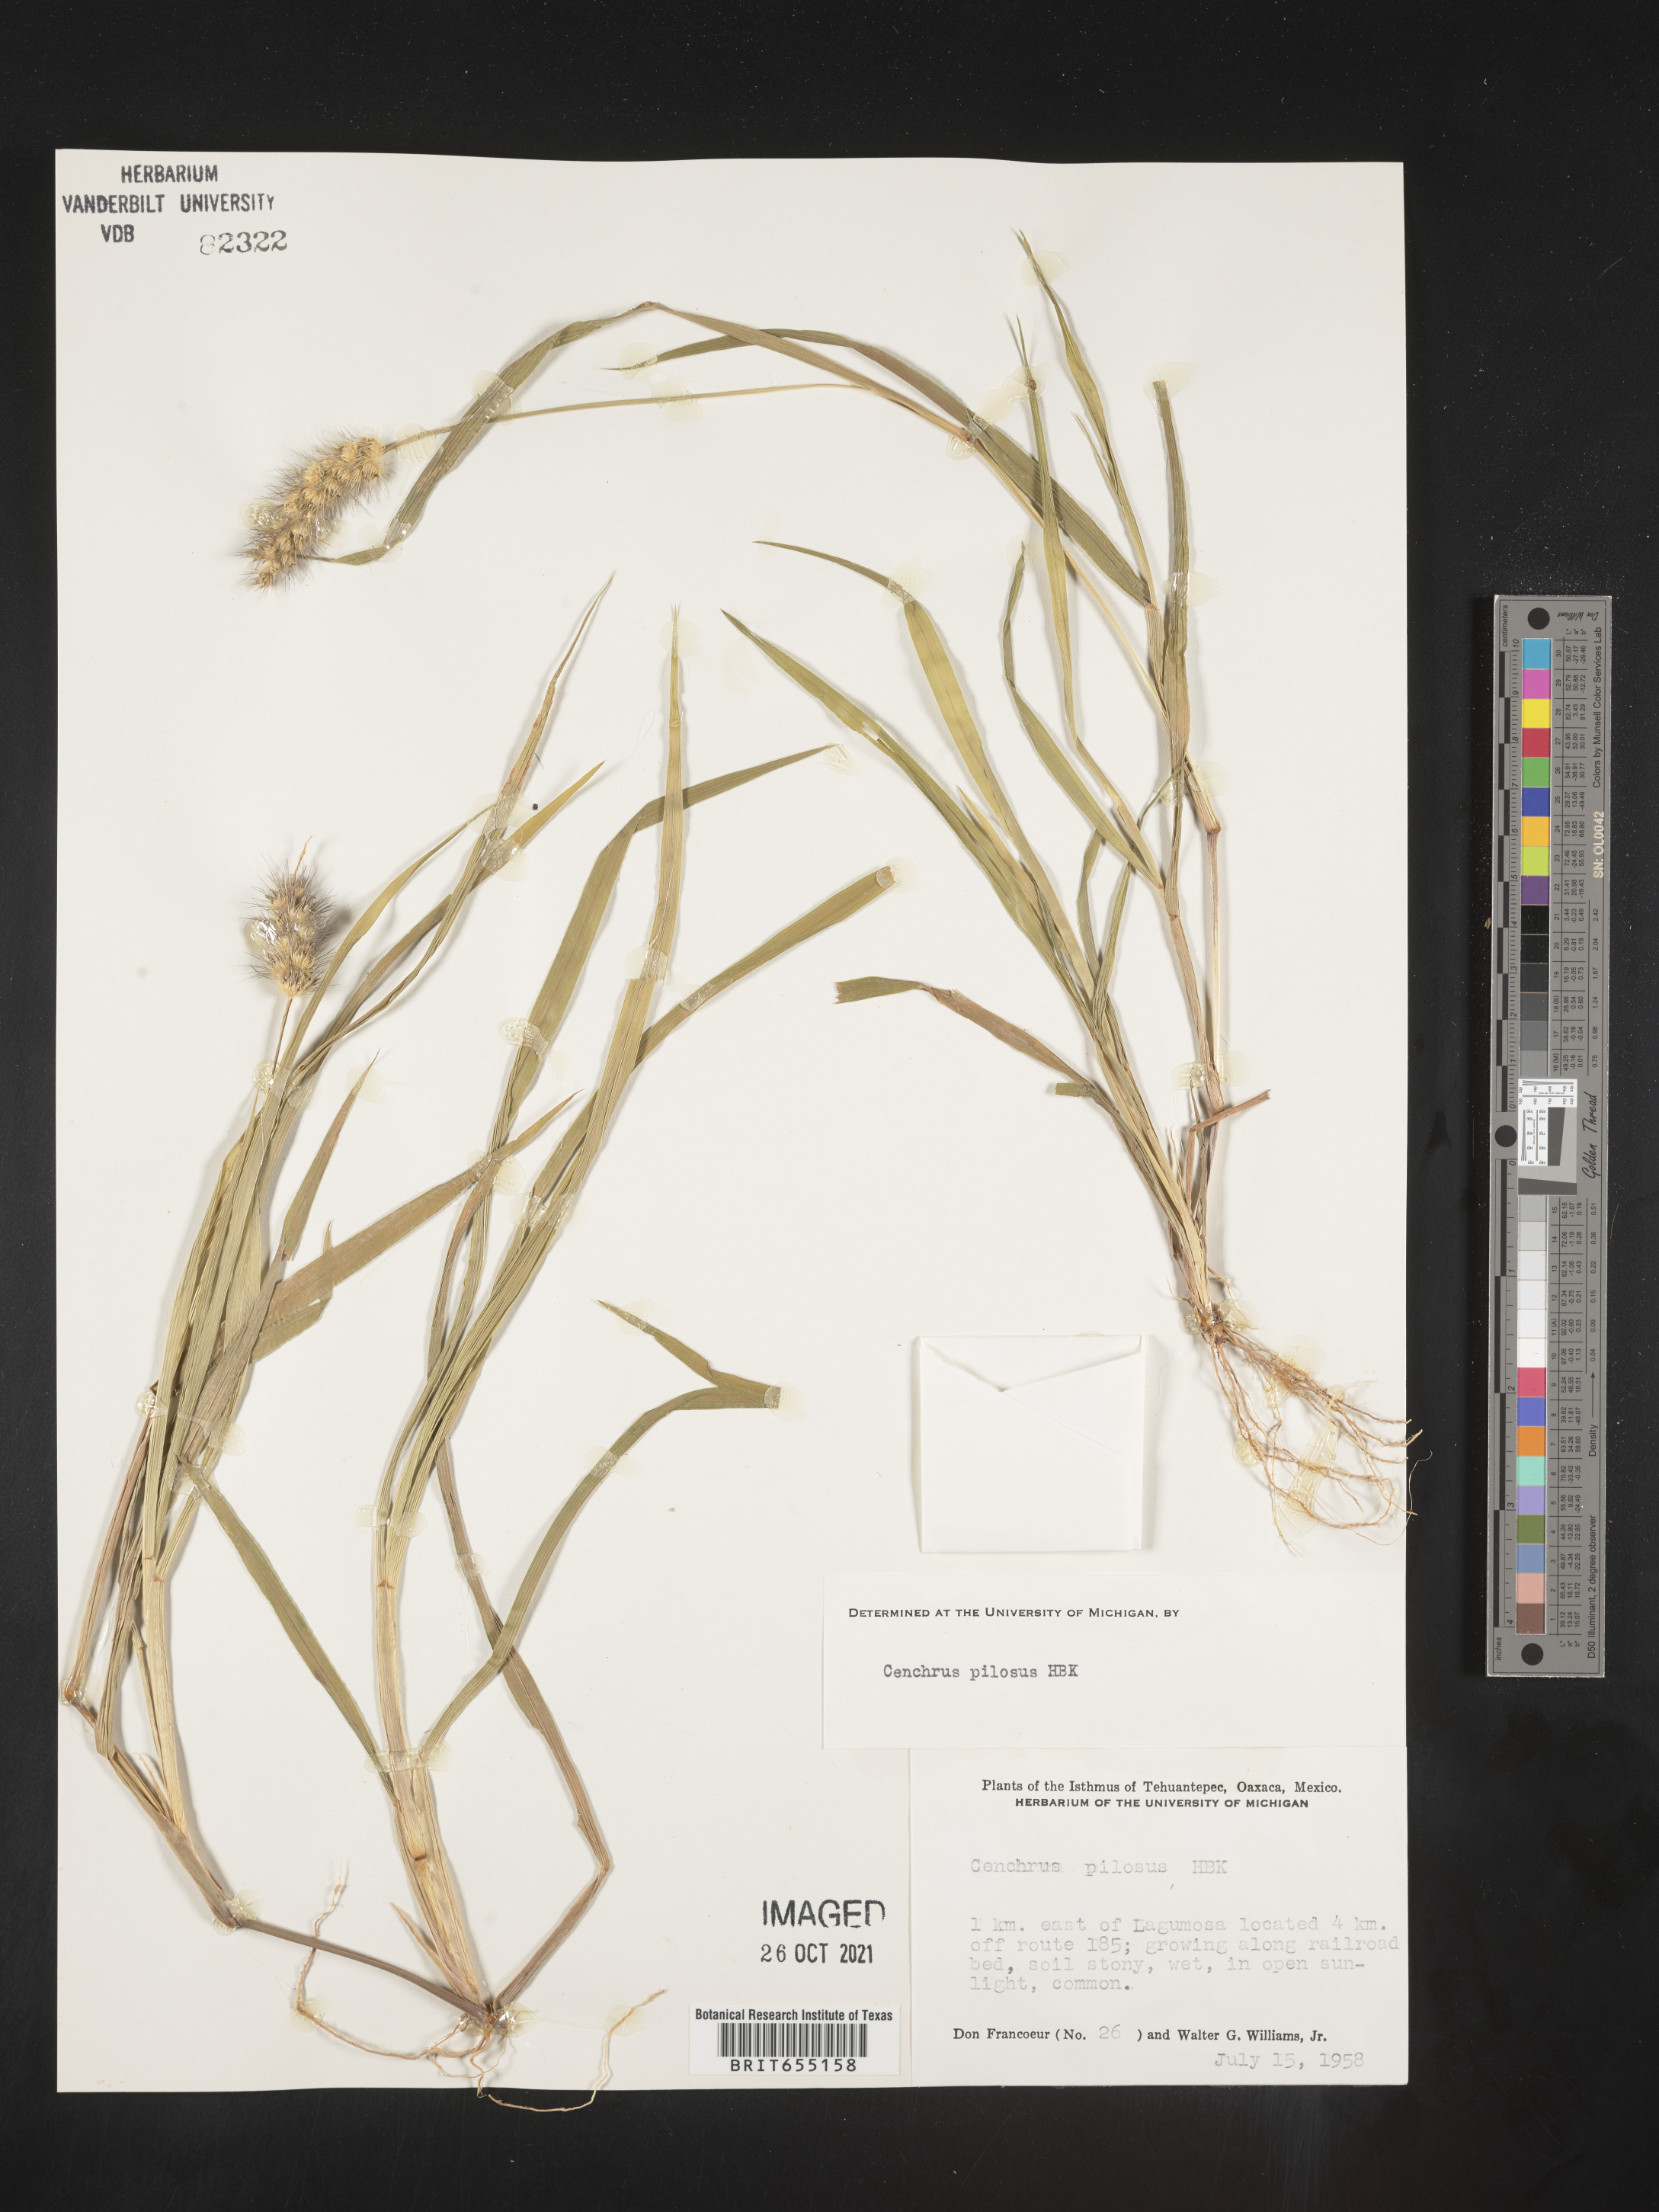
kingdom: Plantae
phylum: Tracheophyta
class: Liliopsida
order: Poales
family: Poaceae
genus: Cenchrus
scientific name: Cenchrus
